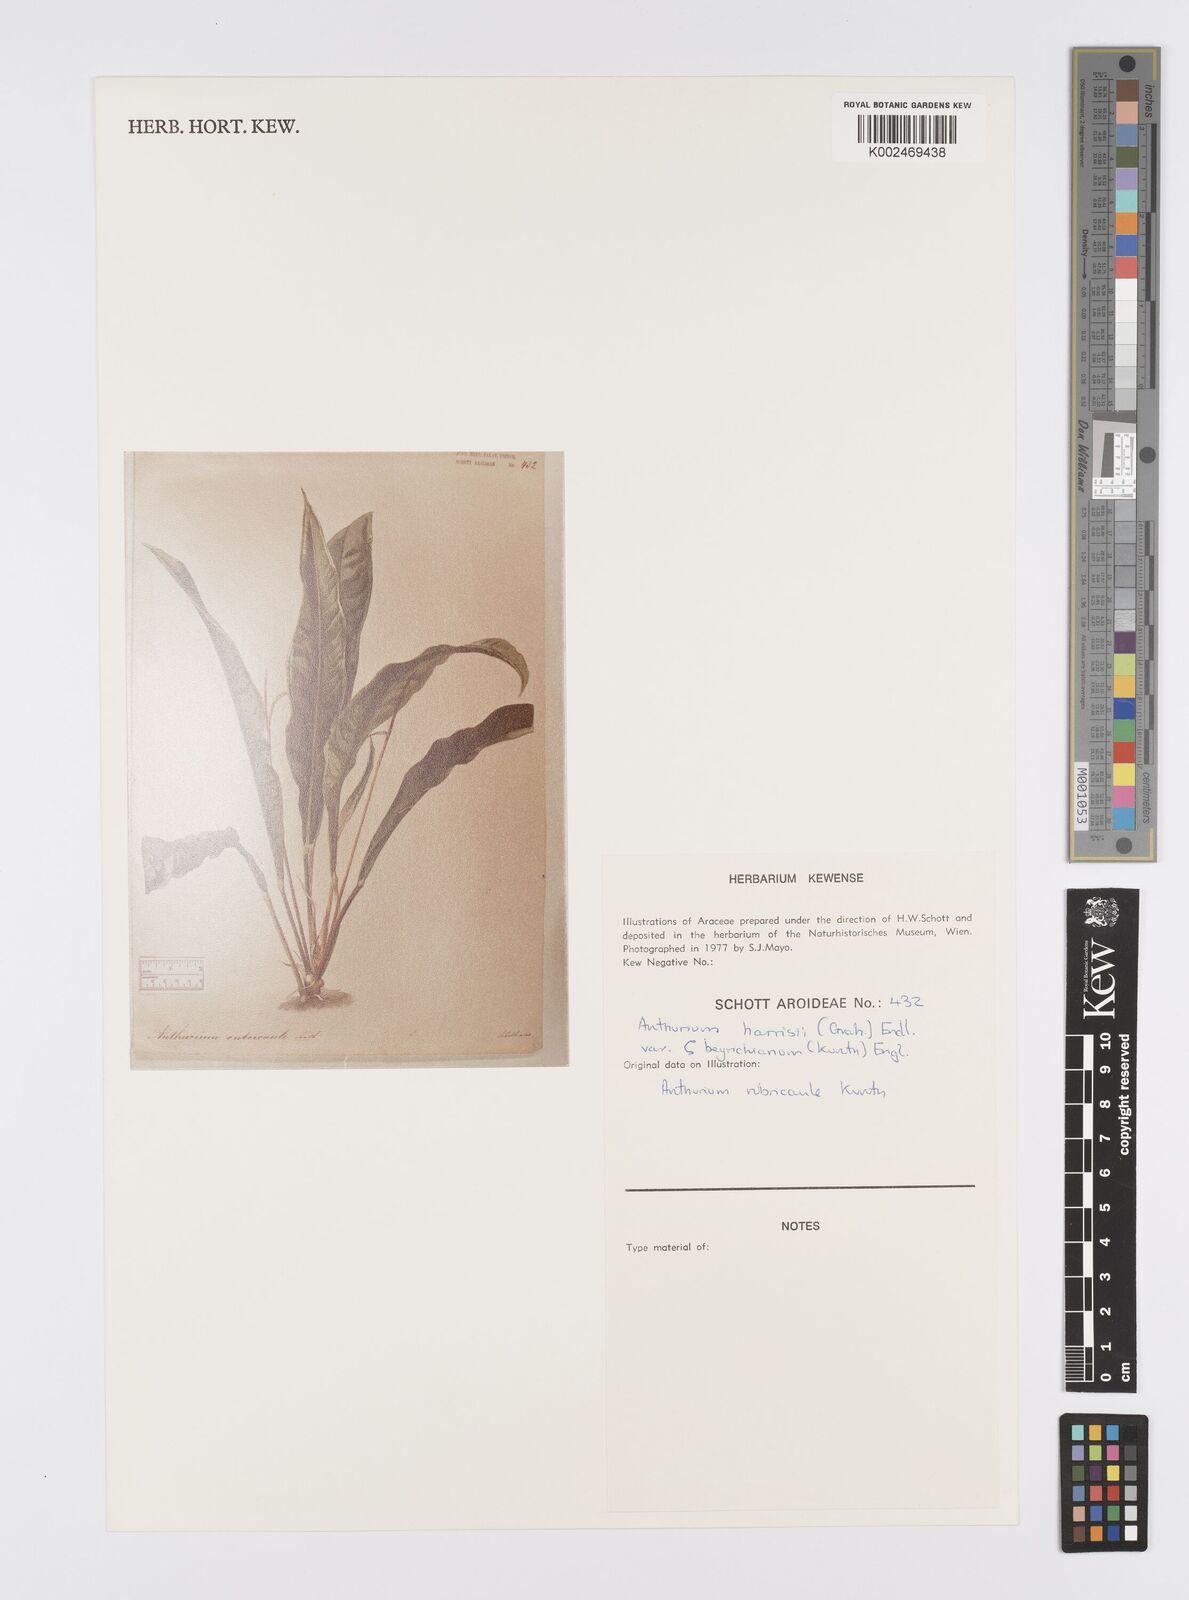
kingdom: Plantae
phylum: Tracheophyta
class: Liliopsida
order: Alismatales
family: Araceae
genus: Anthurium
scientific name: Anthurium intermedium
